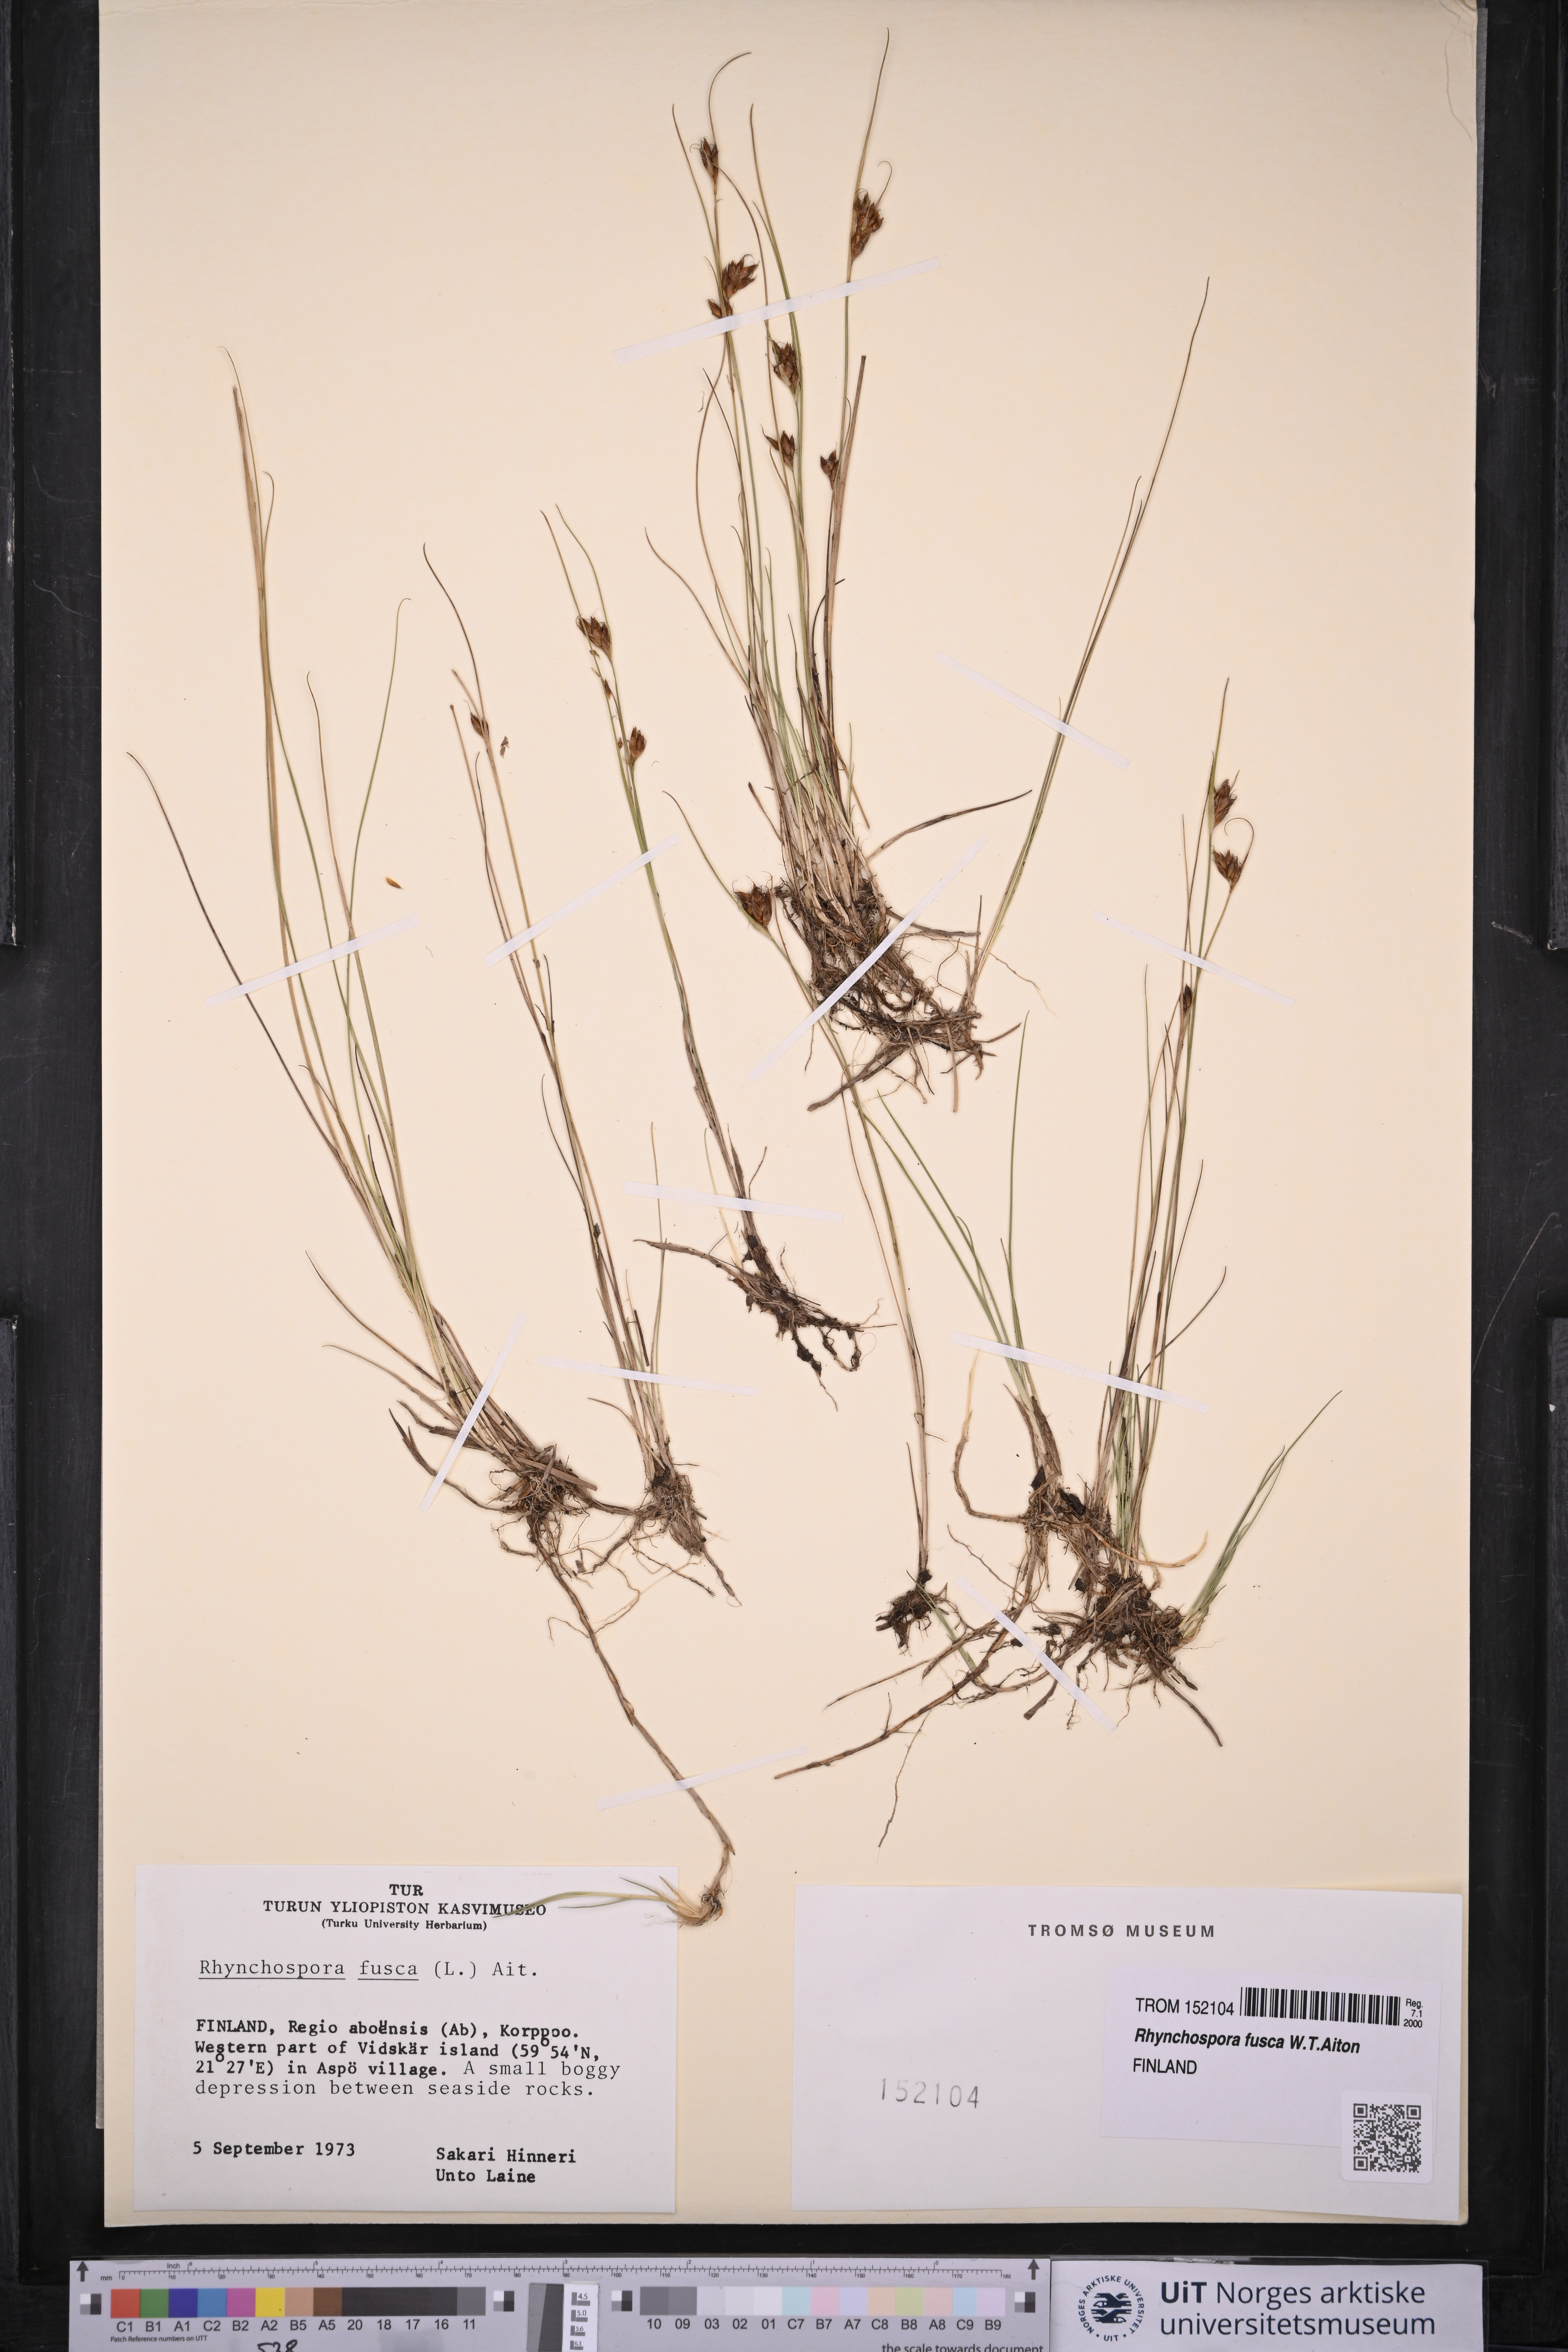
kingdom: Plantae
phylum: Tracheophyta
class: Liliopsida
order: Poales
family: Cyperaceae
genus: Rhynchospora
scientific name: Rhynchospora fusca
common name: Brown beak-sedge
